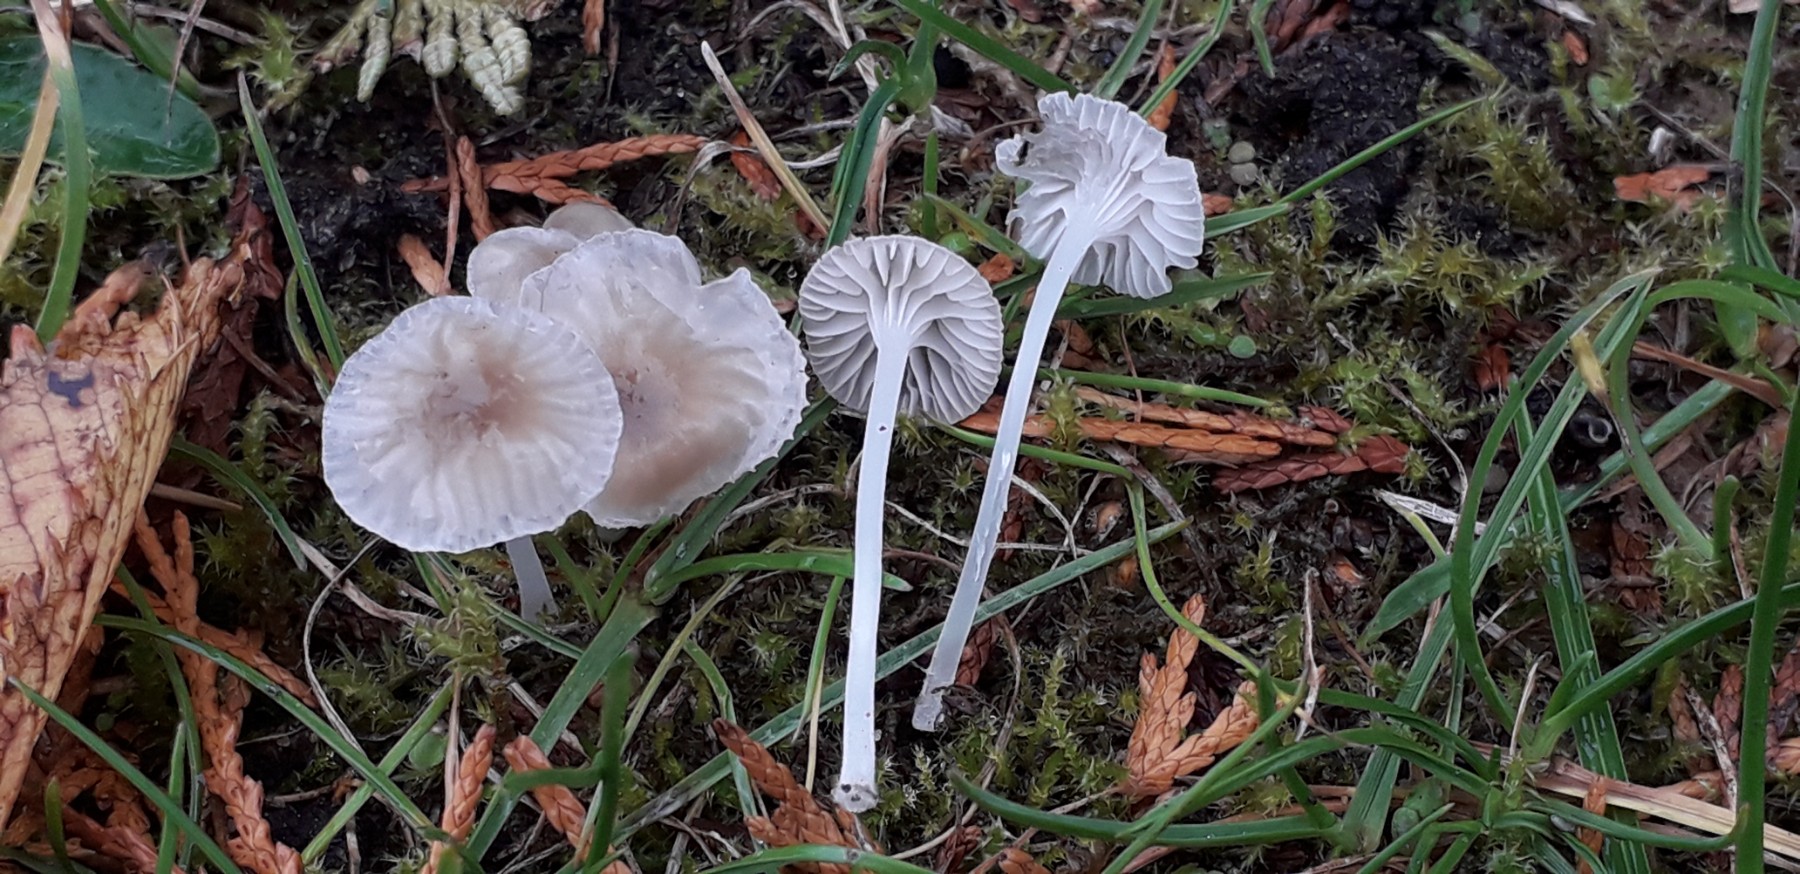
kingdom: Fungi
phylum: Basidiomycota
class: Agaricomycetes
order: Agaricales
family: Mycenaceae
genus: Hemimycena
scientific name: Hemimycena mairei
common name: voks-huesvamp
